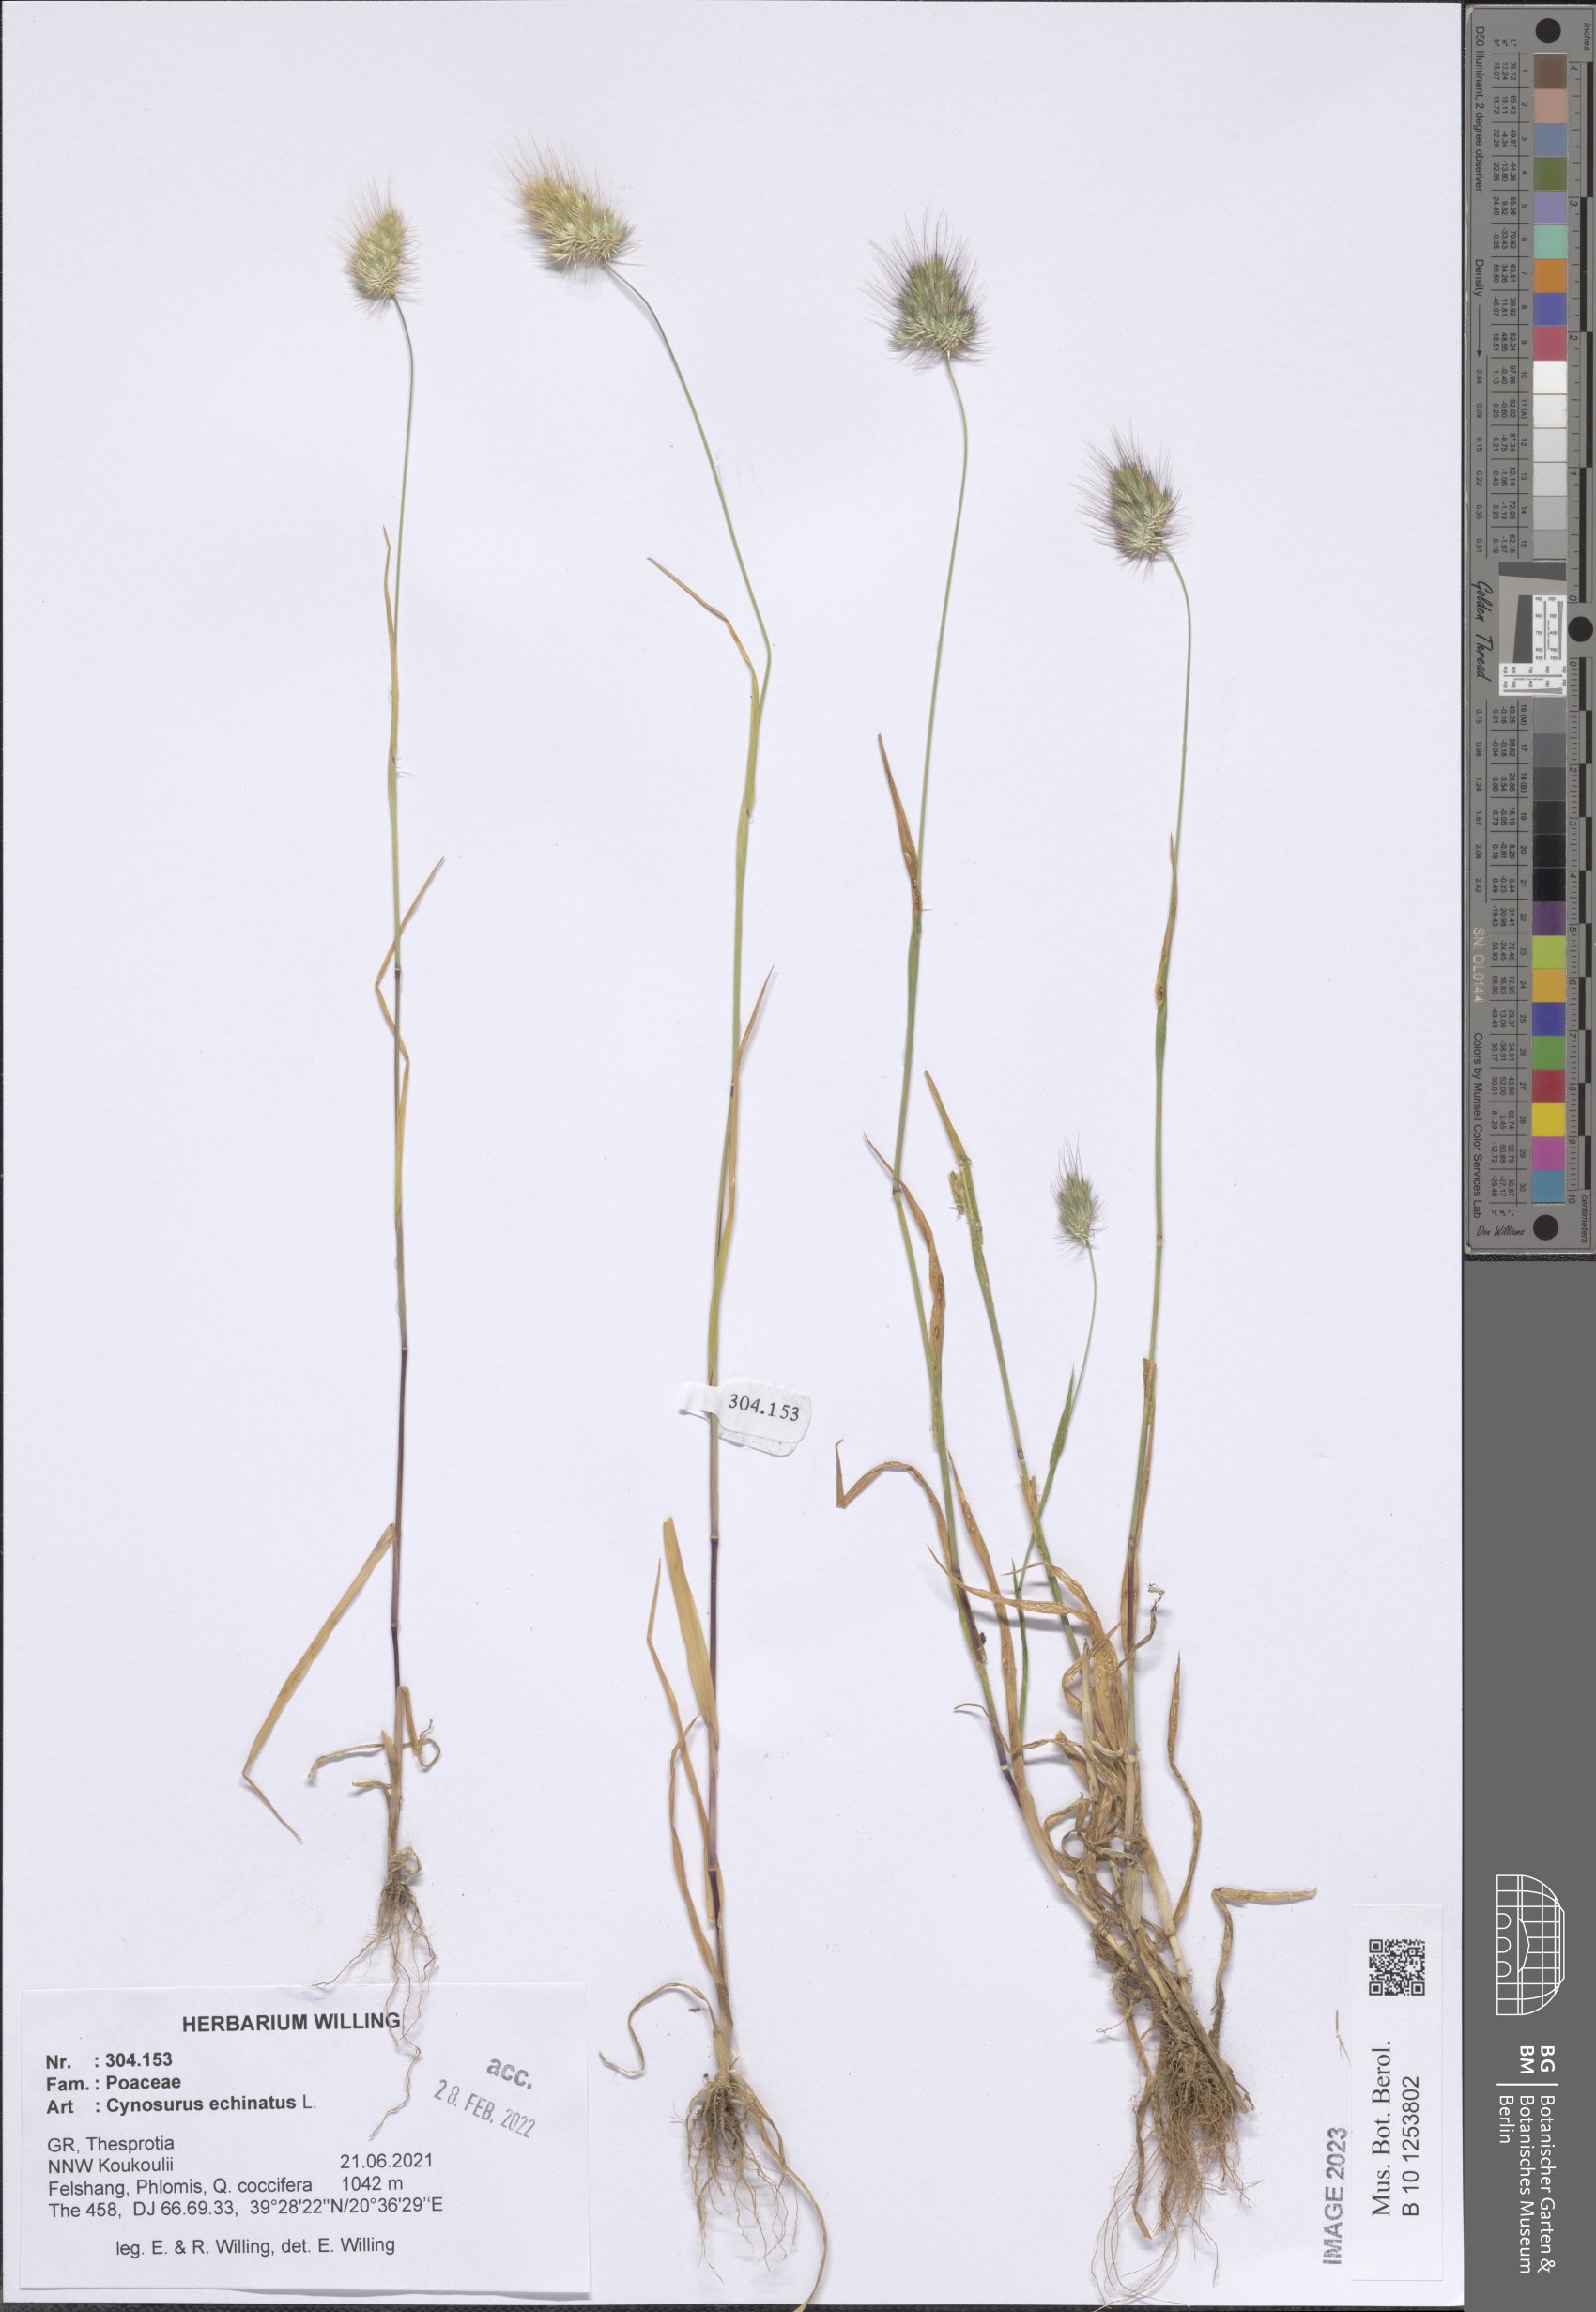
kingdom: Plantae
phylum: Tracheophyta
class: Liliopsida
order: Poales
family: Poaceae
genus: Cynosurus
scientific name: Cynosurus echinatus
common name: Rough dog's-tail
